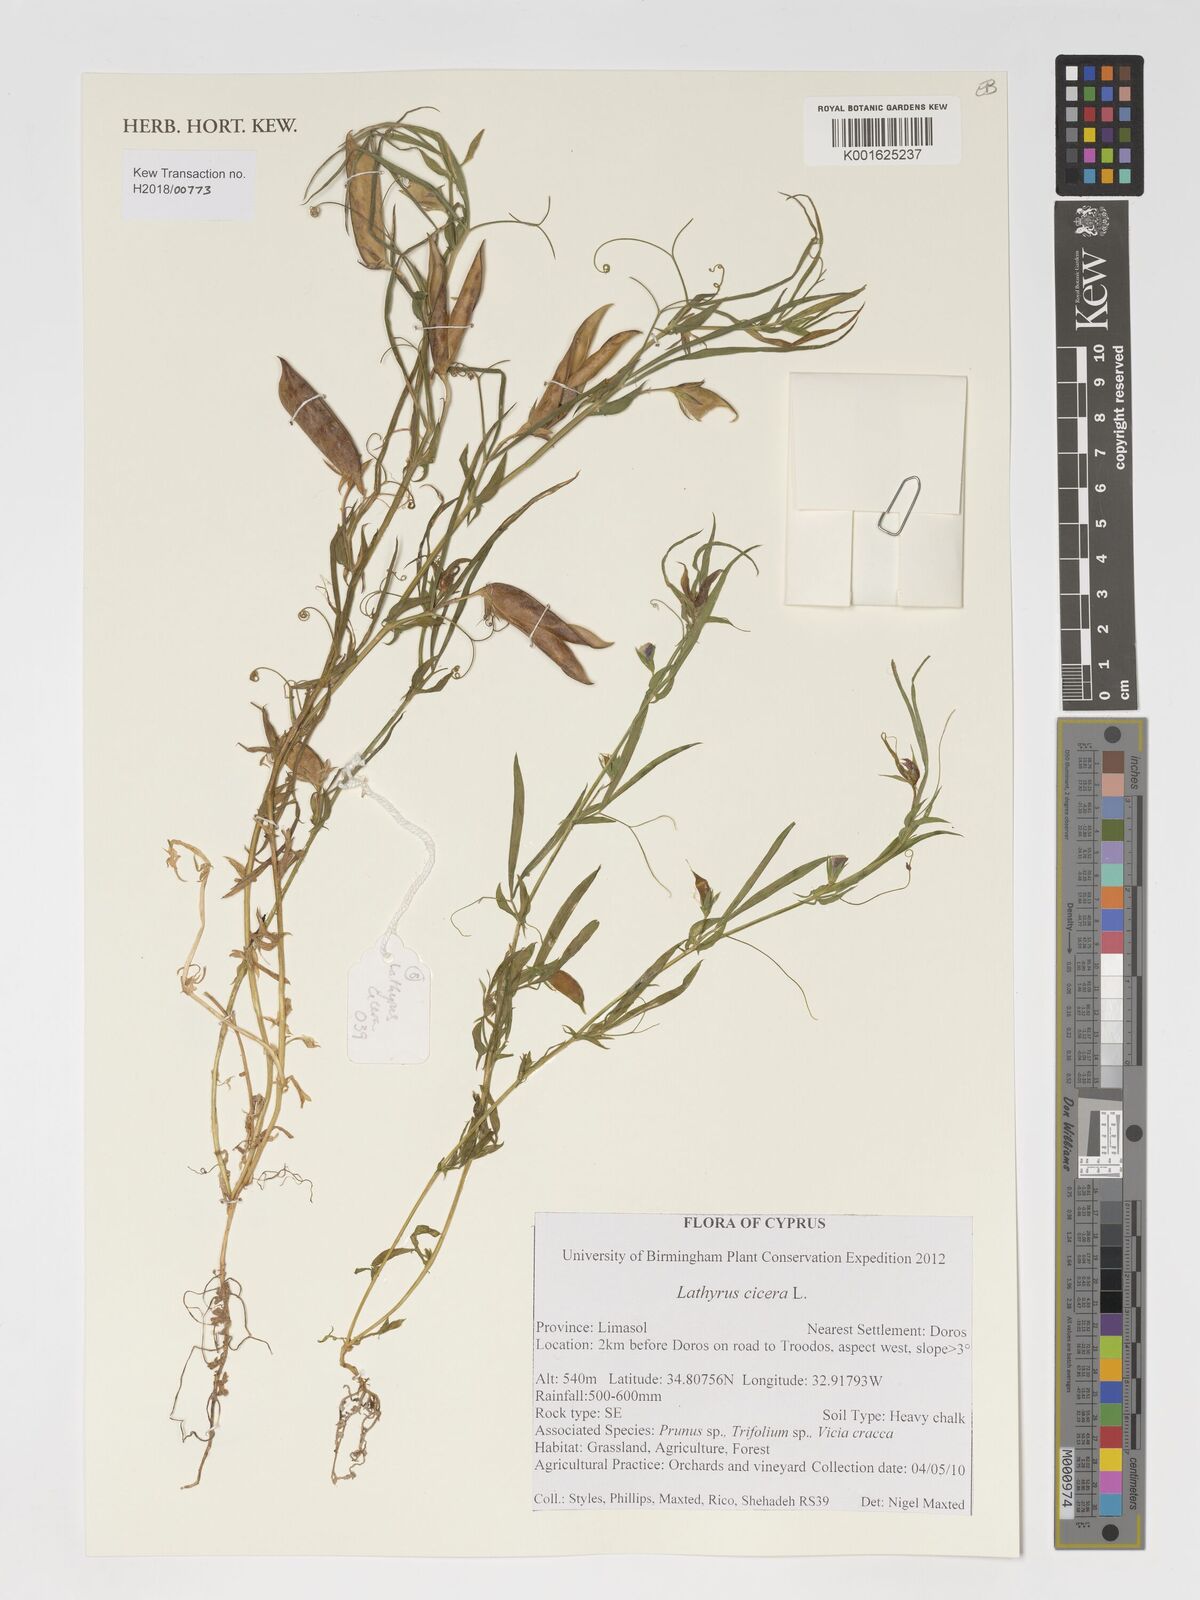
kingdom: Plantae
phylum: Tracheophyta
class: Magnoliopsida
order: Fabales
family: Fabaceae
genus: Lathyrus
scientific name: Lathyrus cicera
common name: Red vetchling
